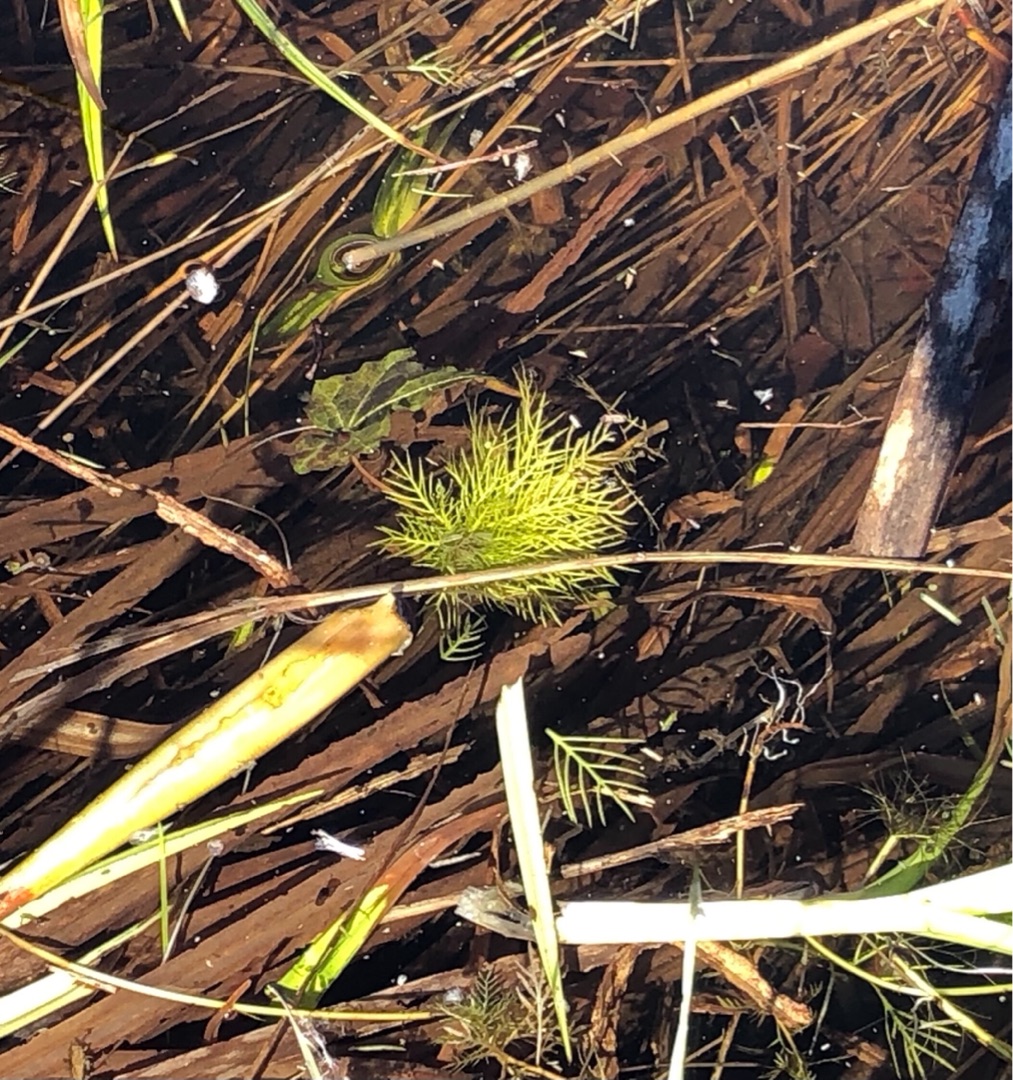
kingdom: Plantae
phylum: Tracheophyta
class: Magnoliopsida
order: Ericales
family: Primulaceae
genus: Hottonia
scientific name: Hottonia palustris
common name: Vandrøllike
